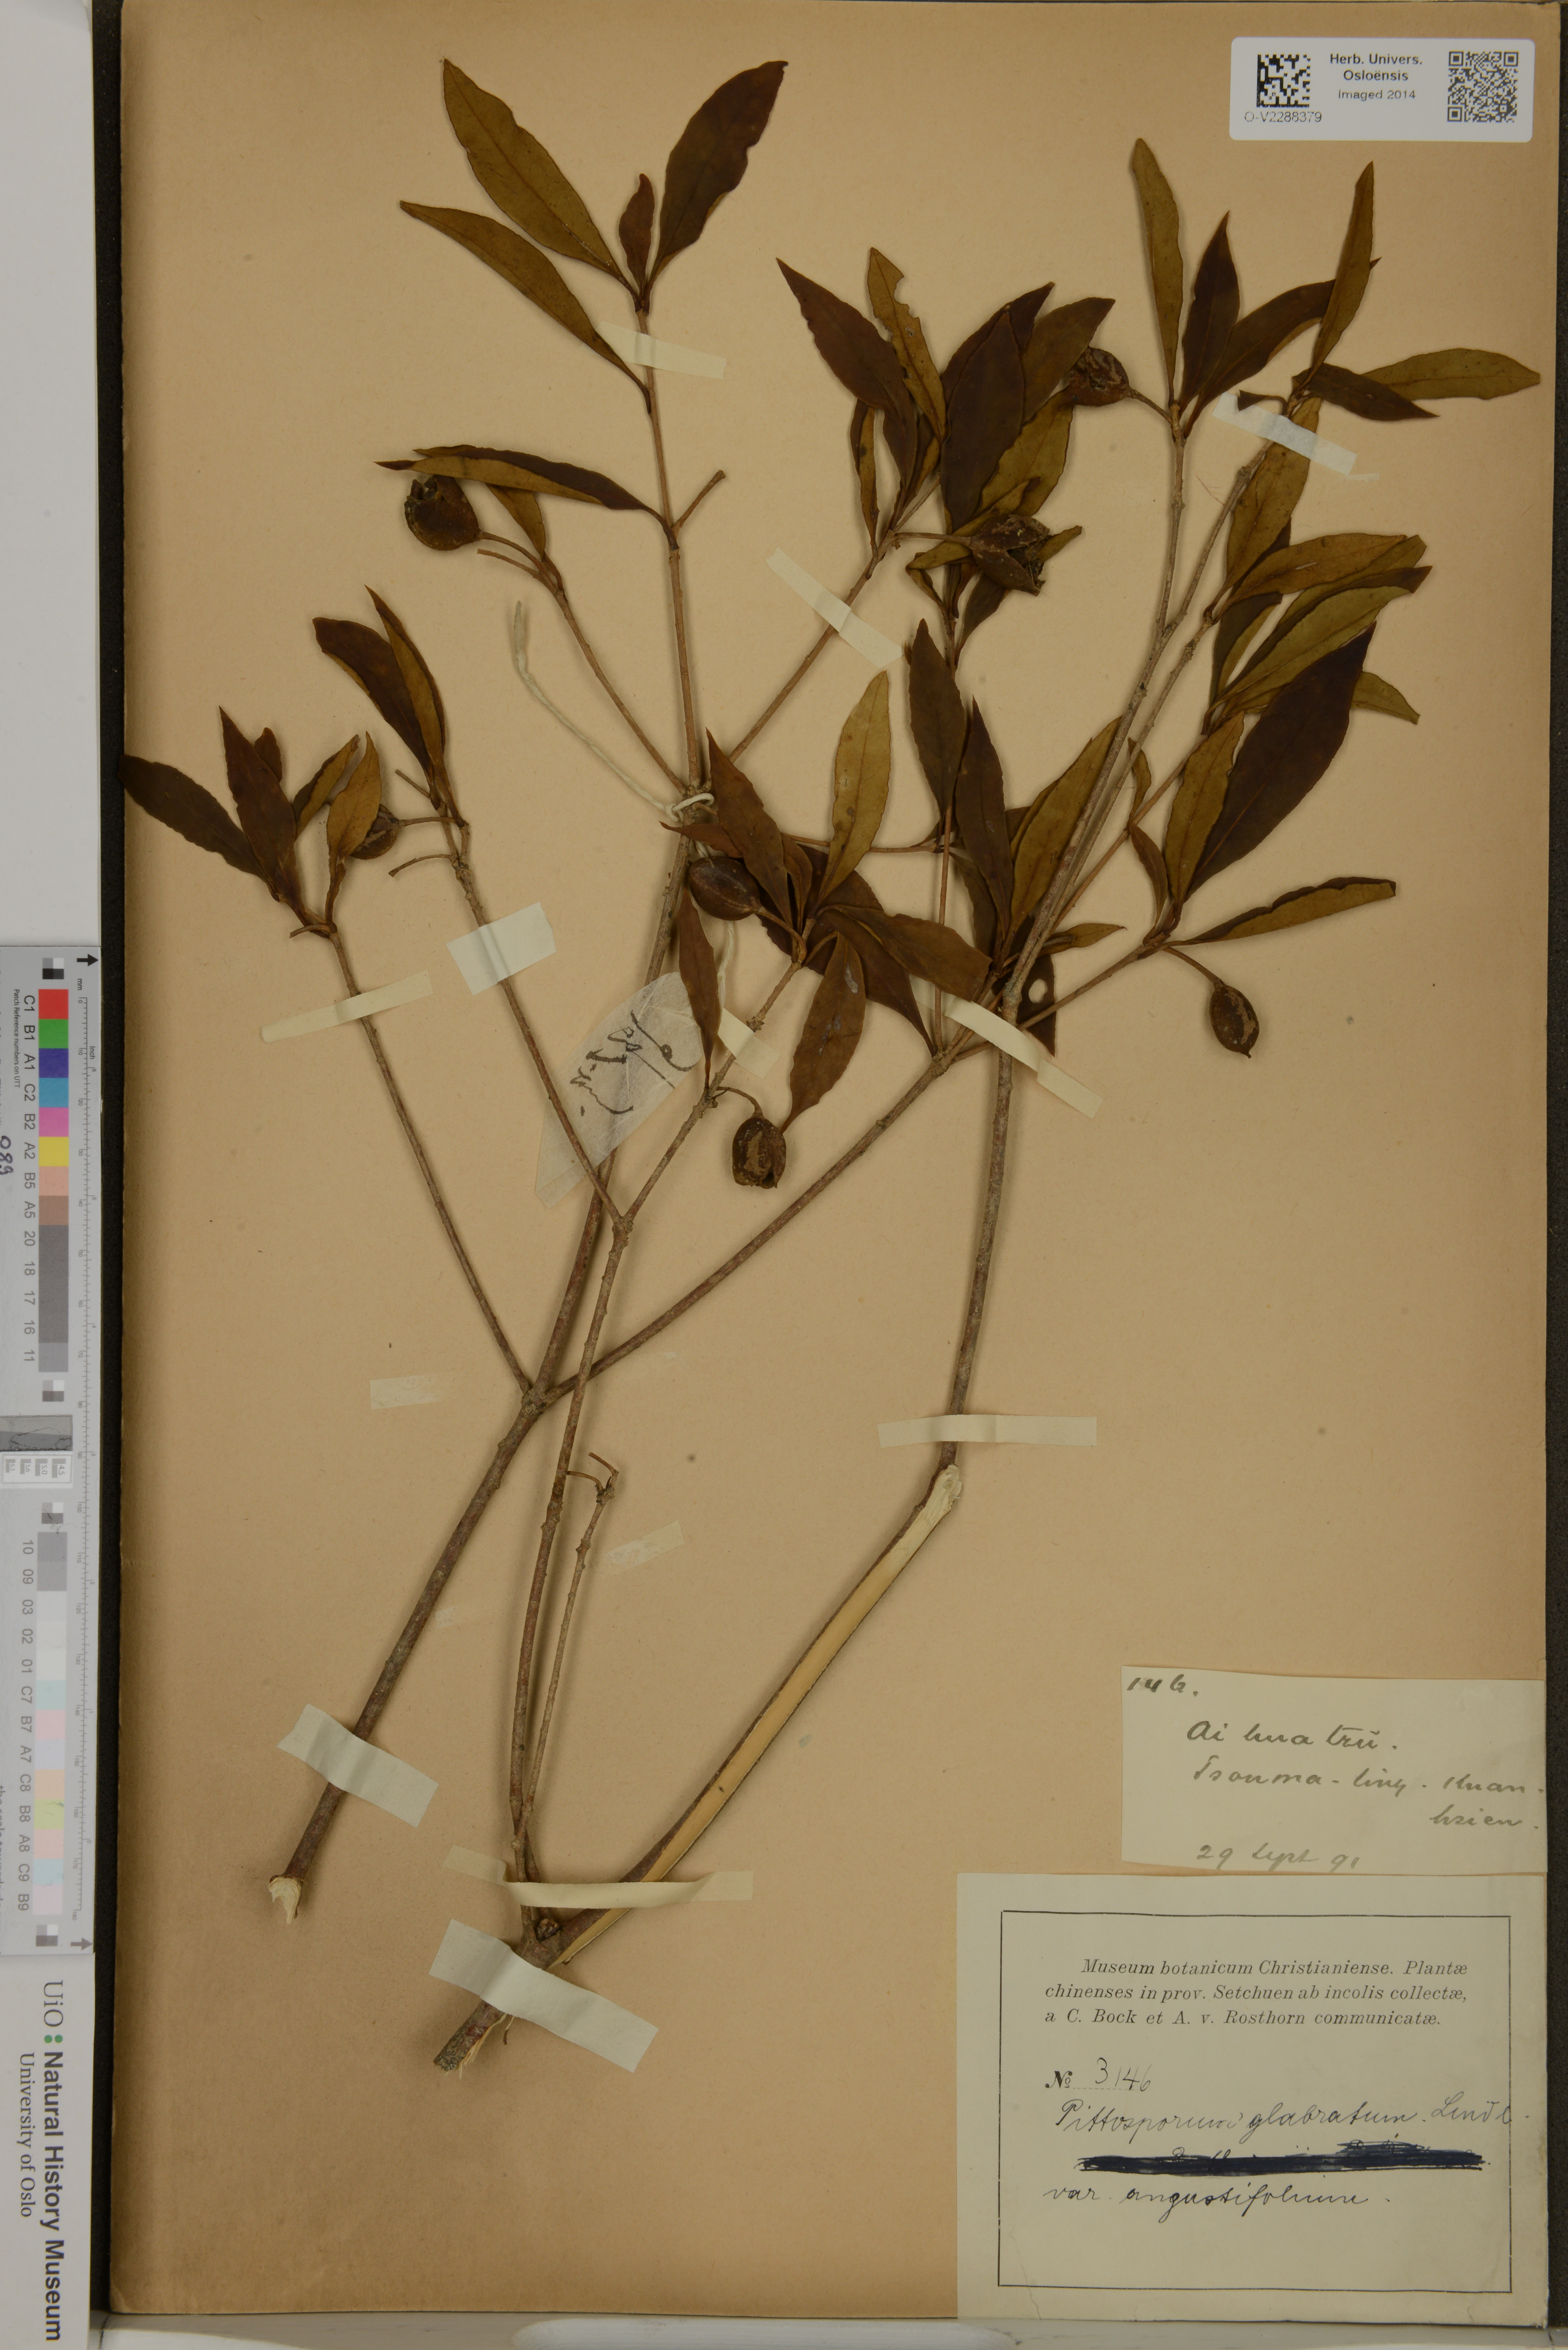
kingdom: Plantae
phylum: Tracheophyta
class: Magnoliopsida
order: Apiales
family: Pittosporaceae
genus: Pittosporum
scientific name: Pittosporum glabratum
